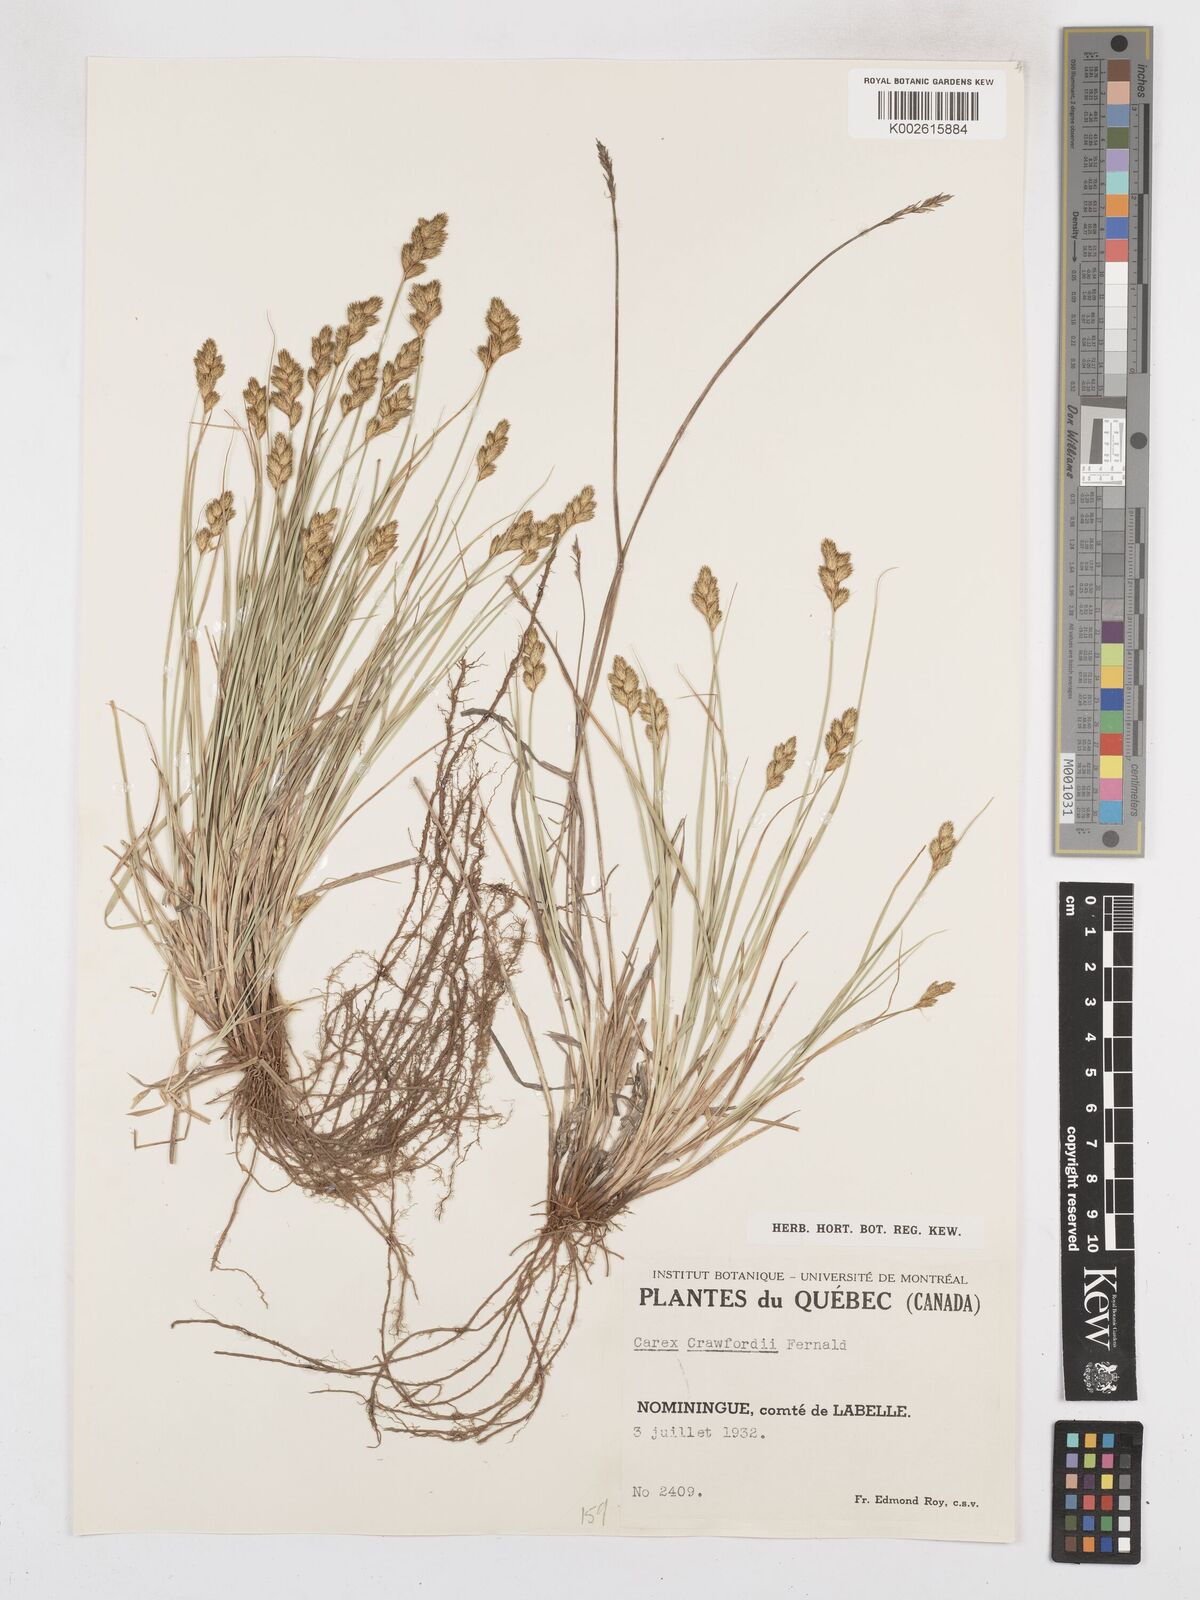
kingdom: Plantae
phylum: Tracheophyta
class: Liliopsida
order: Poales
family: Cyperaceae
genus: Carex
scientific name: Carex crawfordii
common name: Crawford's sedge
